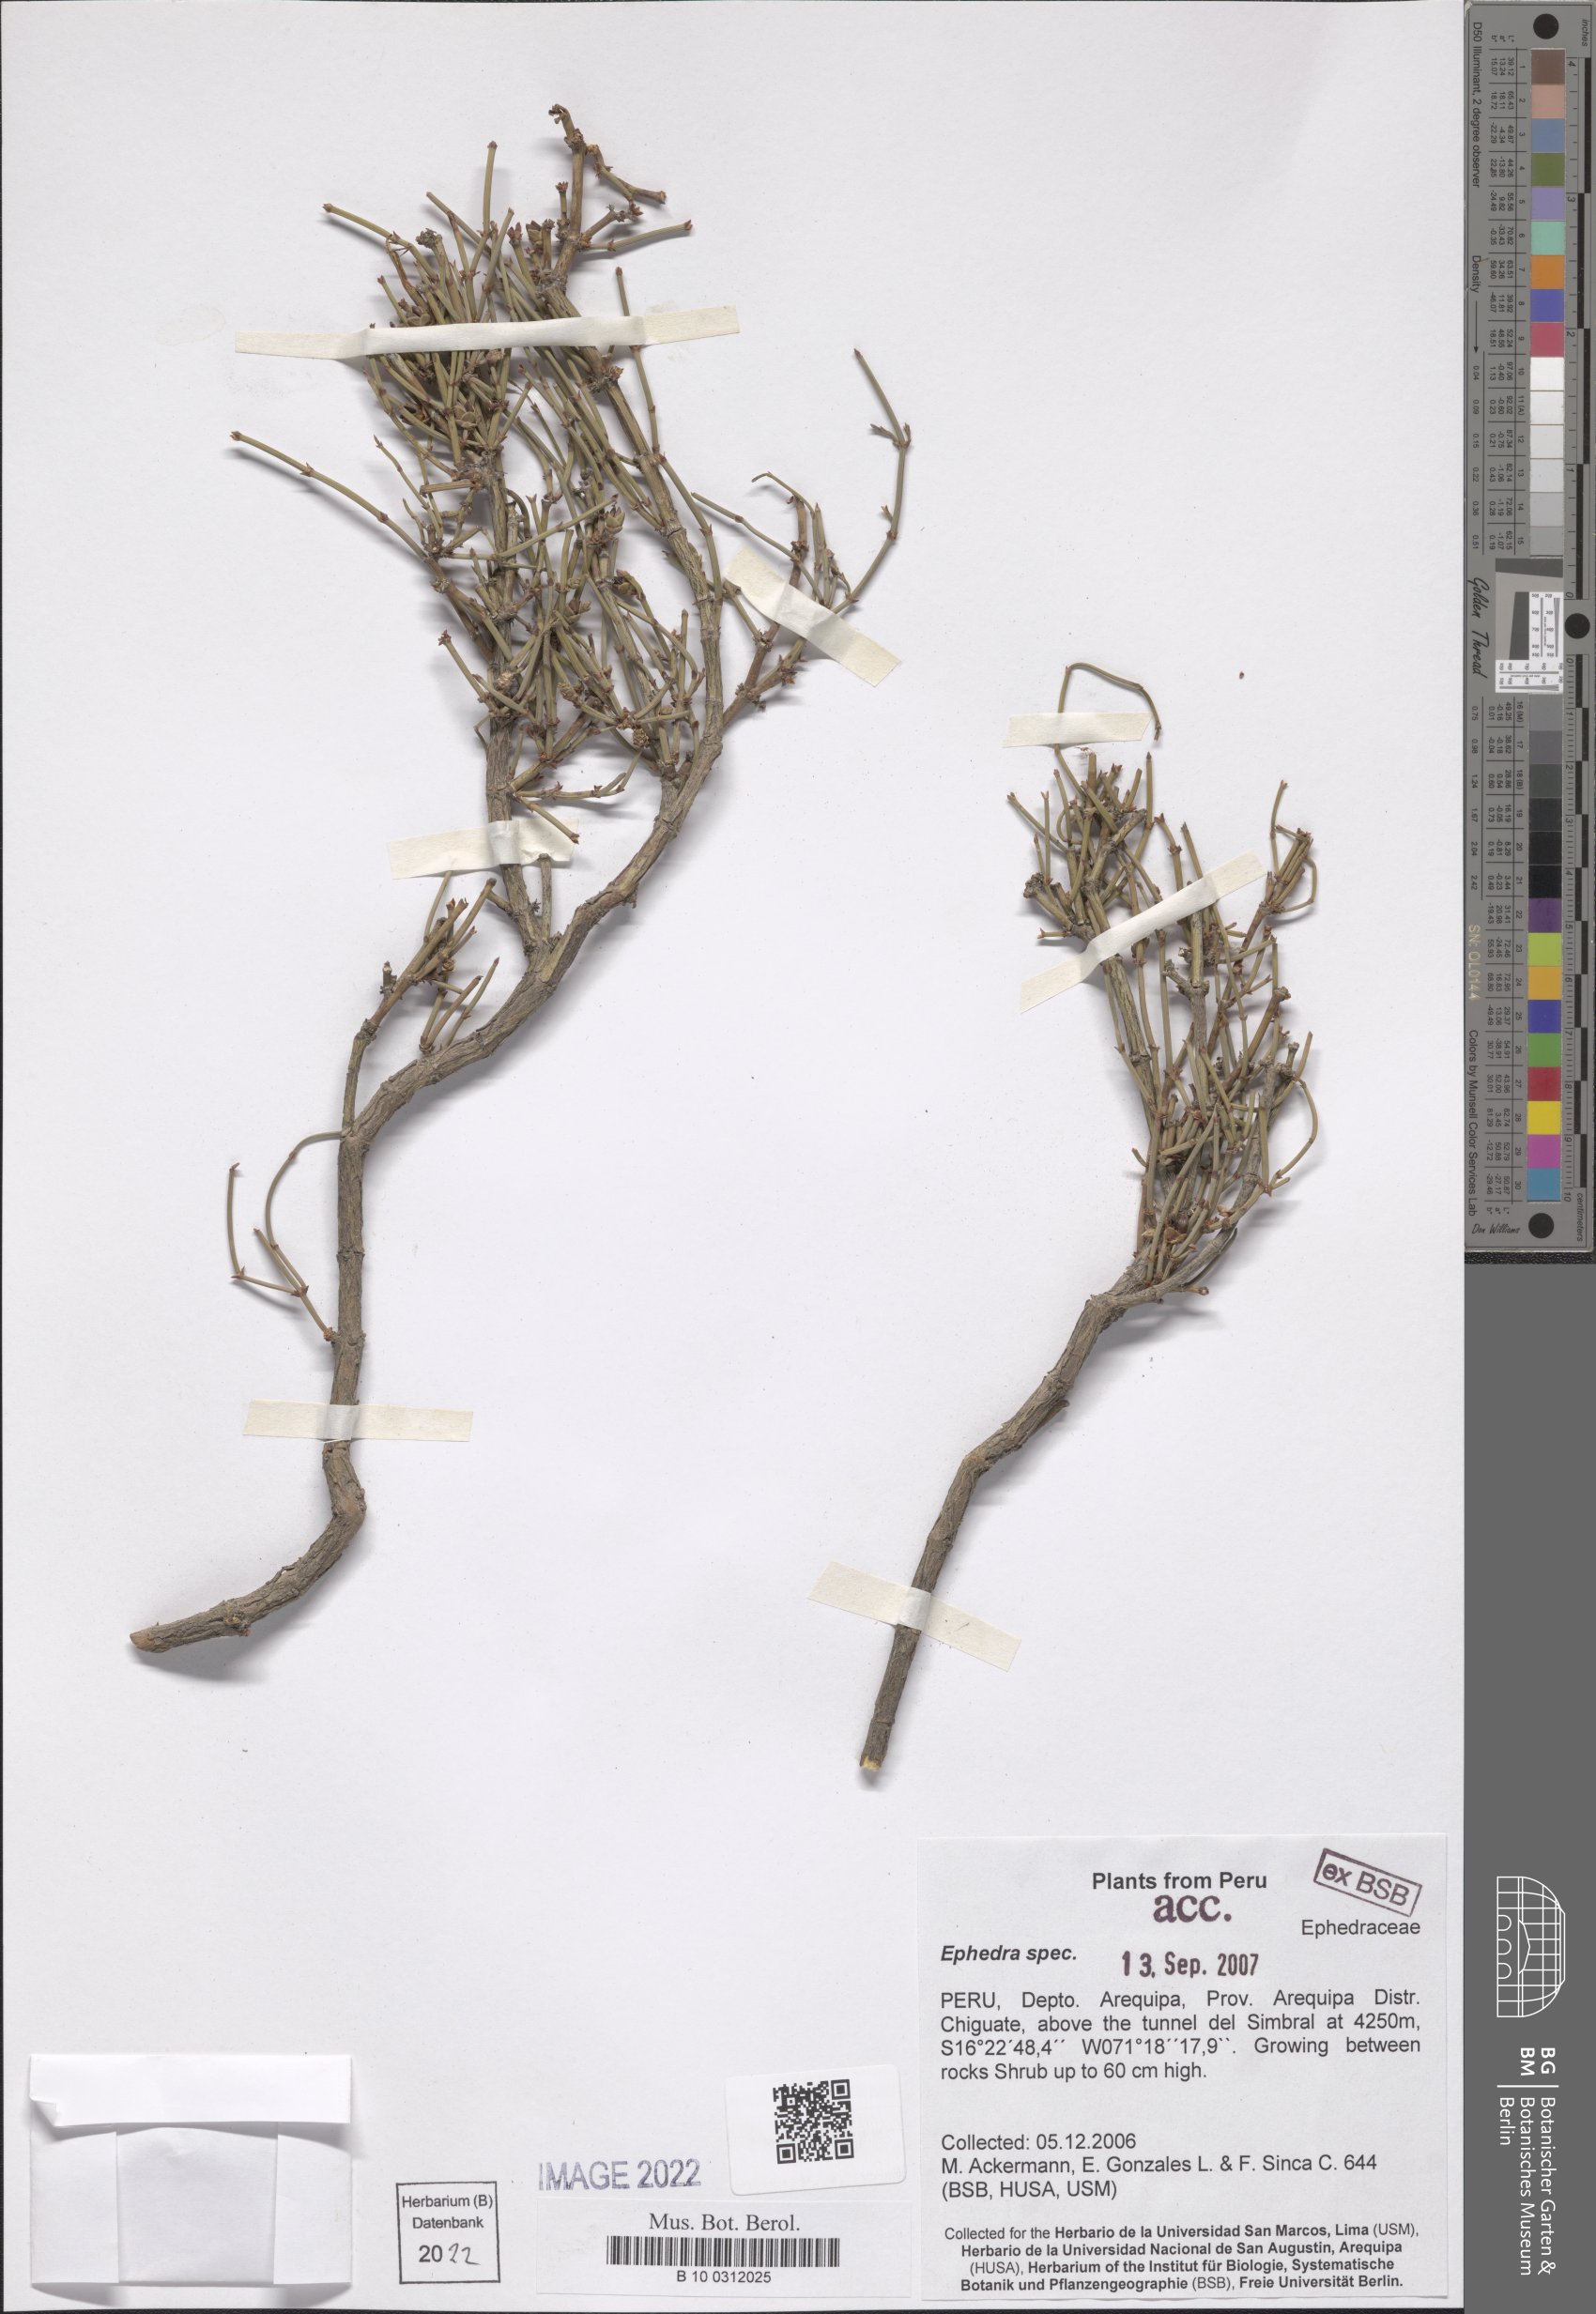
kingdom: Plantae
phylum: Tracheophyta
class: Gnetopsida
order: Ephedrales
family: Ephedraceae
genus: Ephedra
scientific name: Ephedra
